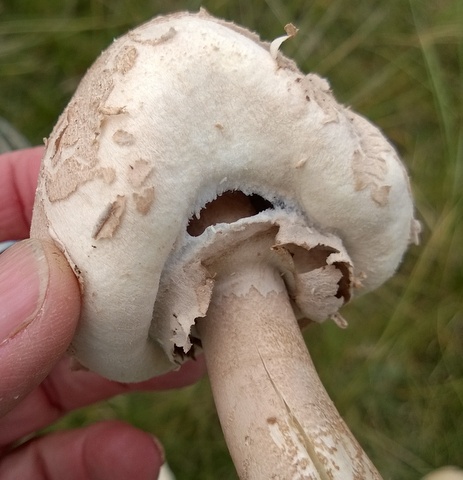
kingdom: Fungi
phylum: Basidiomycota
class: Agaricomycetes
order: Agaricales
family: Agaricaceae
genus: Macrolepiota
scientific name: Macrolepiota mastoidea
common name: puklet kæmpeparasolhat
